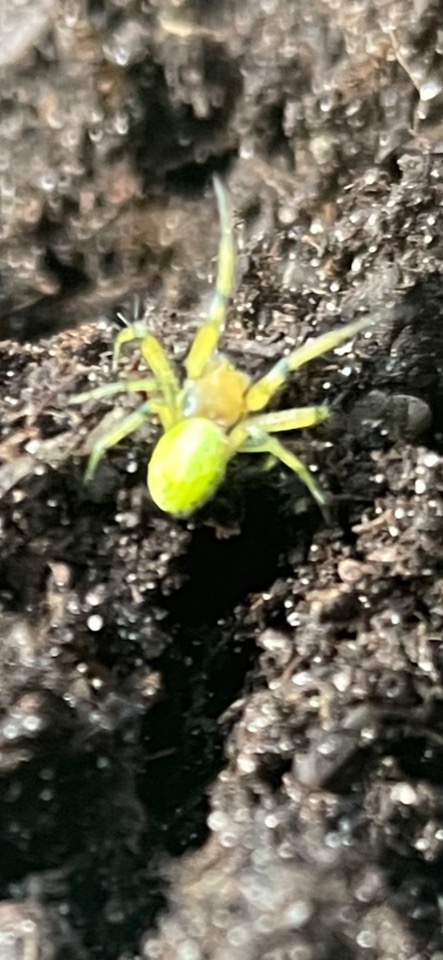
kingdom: Animalia
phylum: Arthropoda
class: Arachnida
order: Araneae
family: Araneidae
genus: Araniella
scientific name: Araniella
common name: Agurkeedderkopslægten
